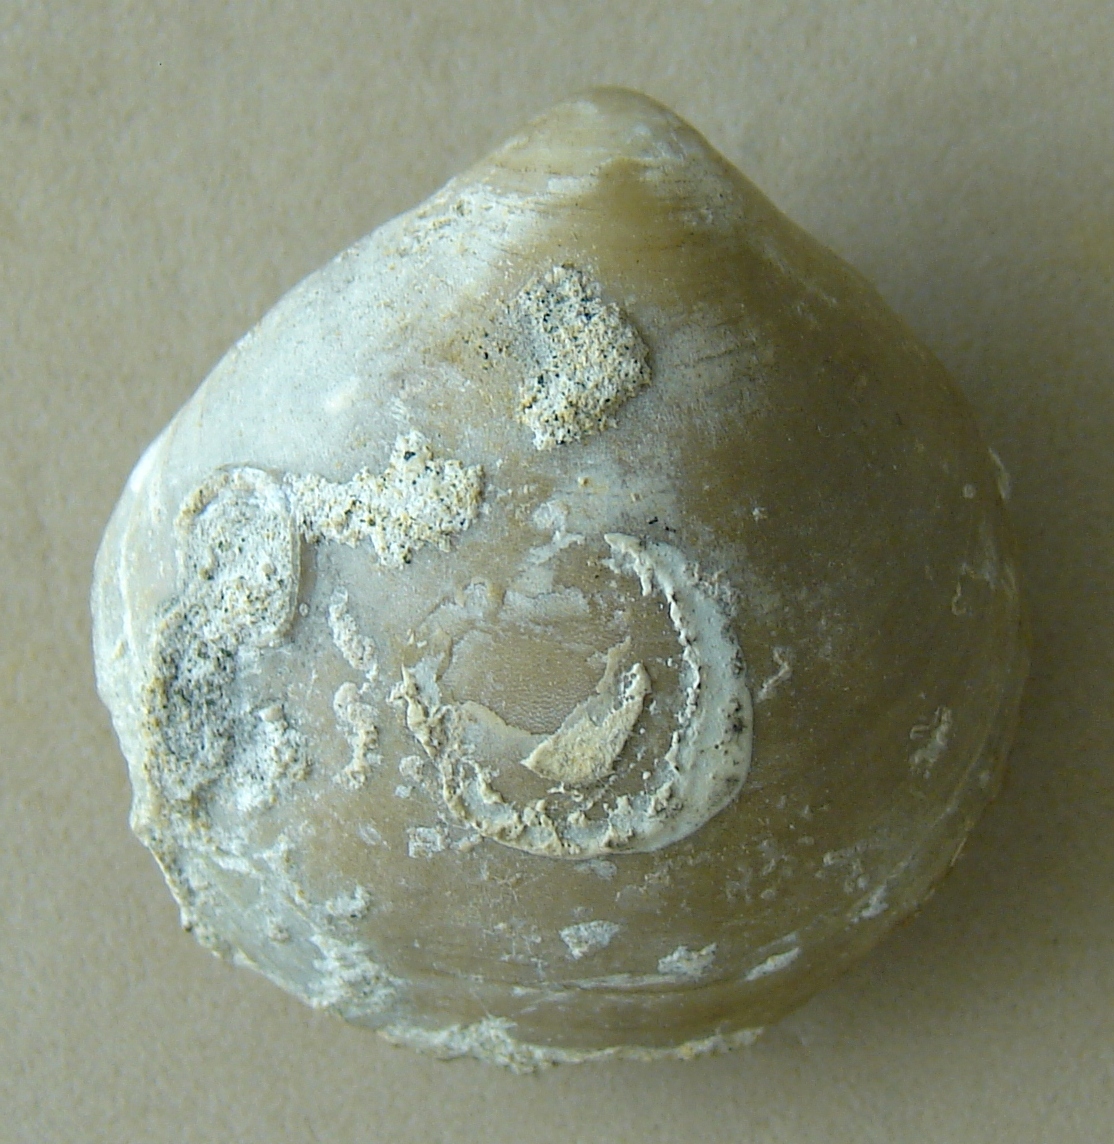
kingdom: Animalia
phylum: Brachiopoda
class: Rhynchonellata
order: Terebratulida
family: Cnismatocentridae
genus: Nucleatina
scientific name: Nucleatina Terebratula biplicata
